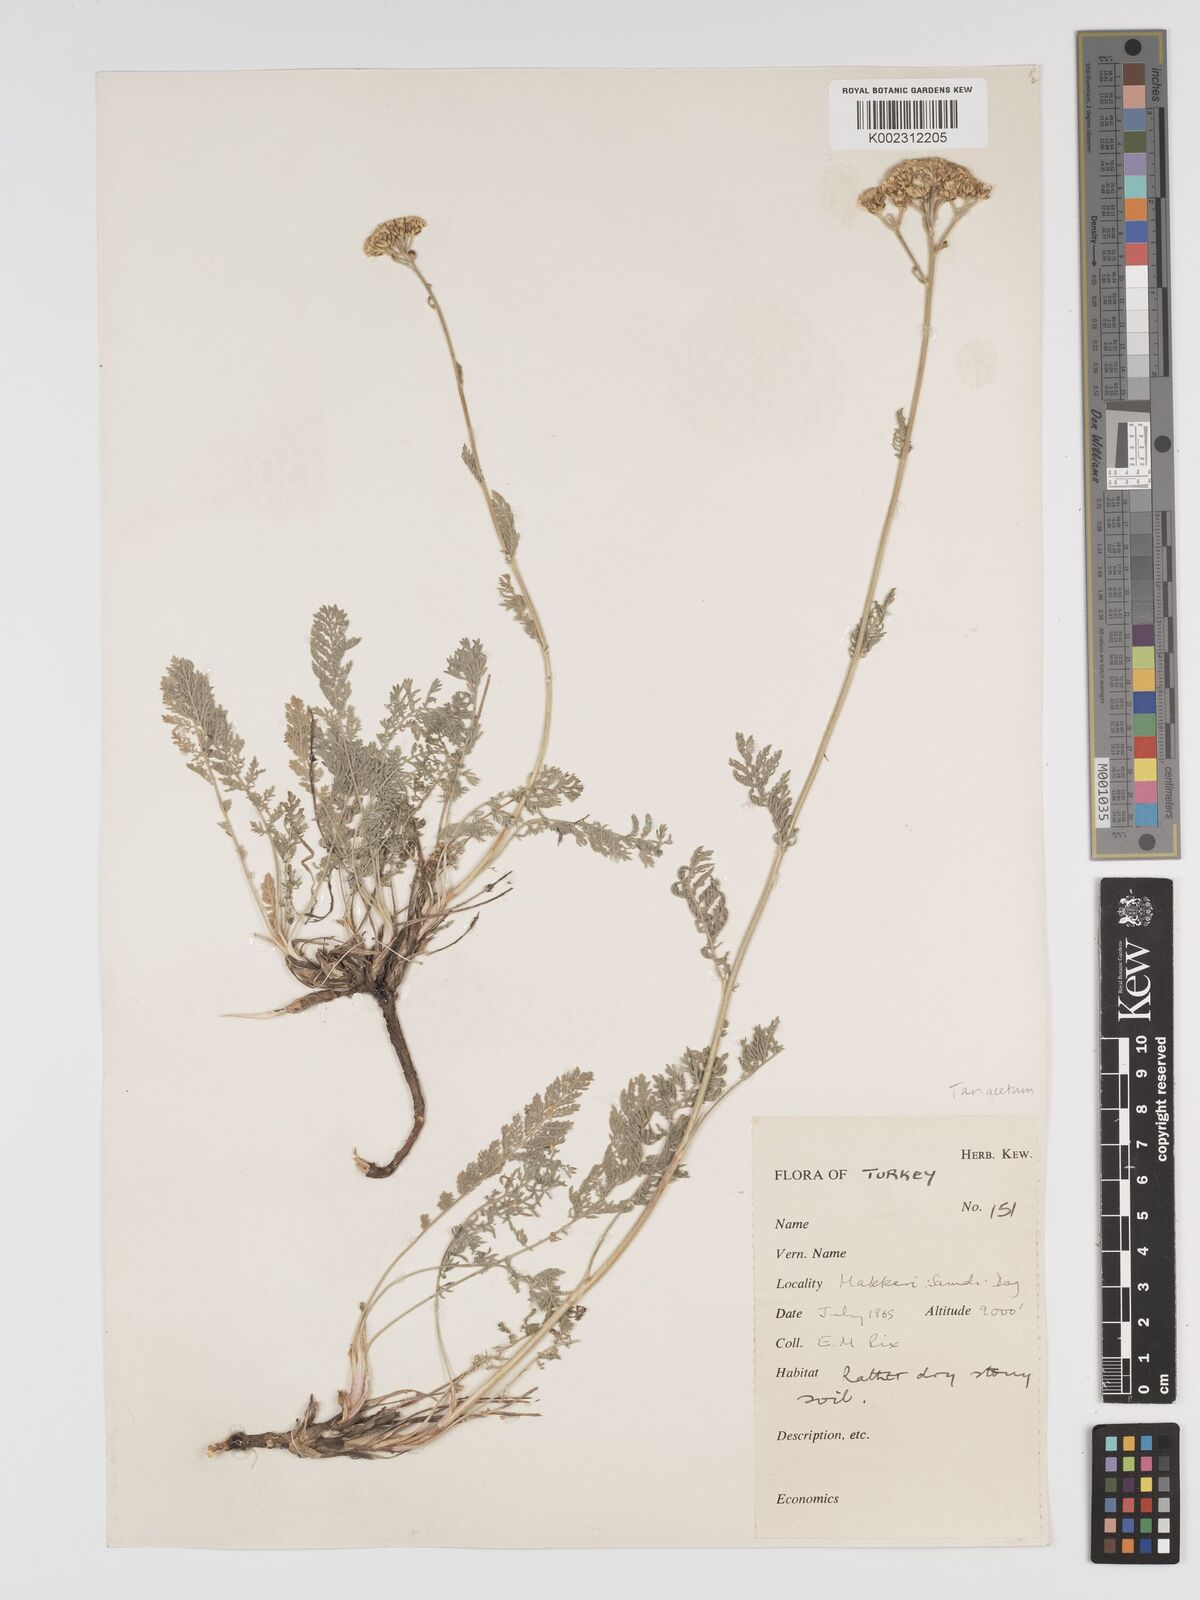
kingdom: Plantae
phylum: Tracheophyta
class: Magnoliopsida
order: Asterales
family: Asteraceae
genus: Tanacetum
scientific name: Tanacetum
